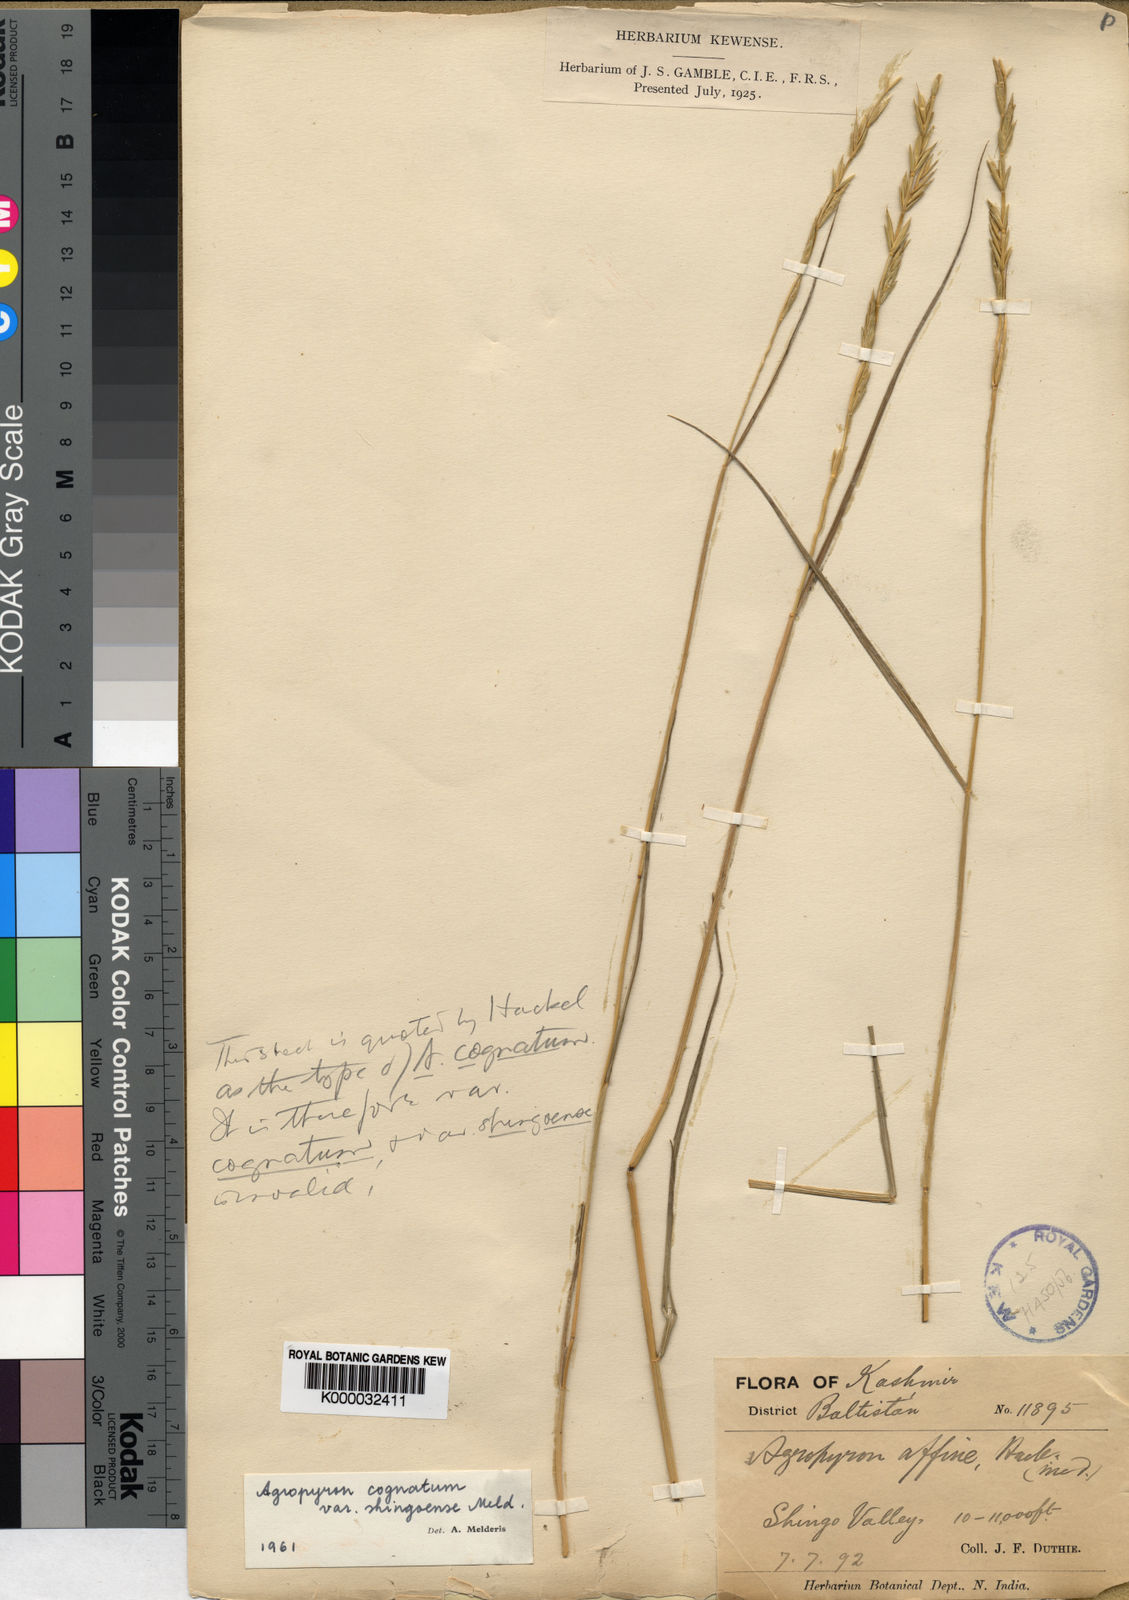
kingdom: Plantae
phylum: Tracheophyta
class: Liliopsida
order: Poales
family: Poaceae
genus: Pseudoroegneria
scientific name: Pseudoroegneria cognata
